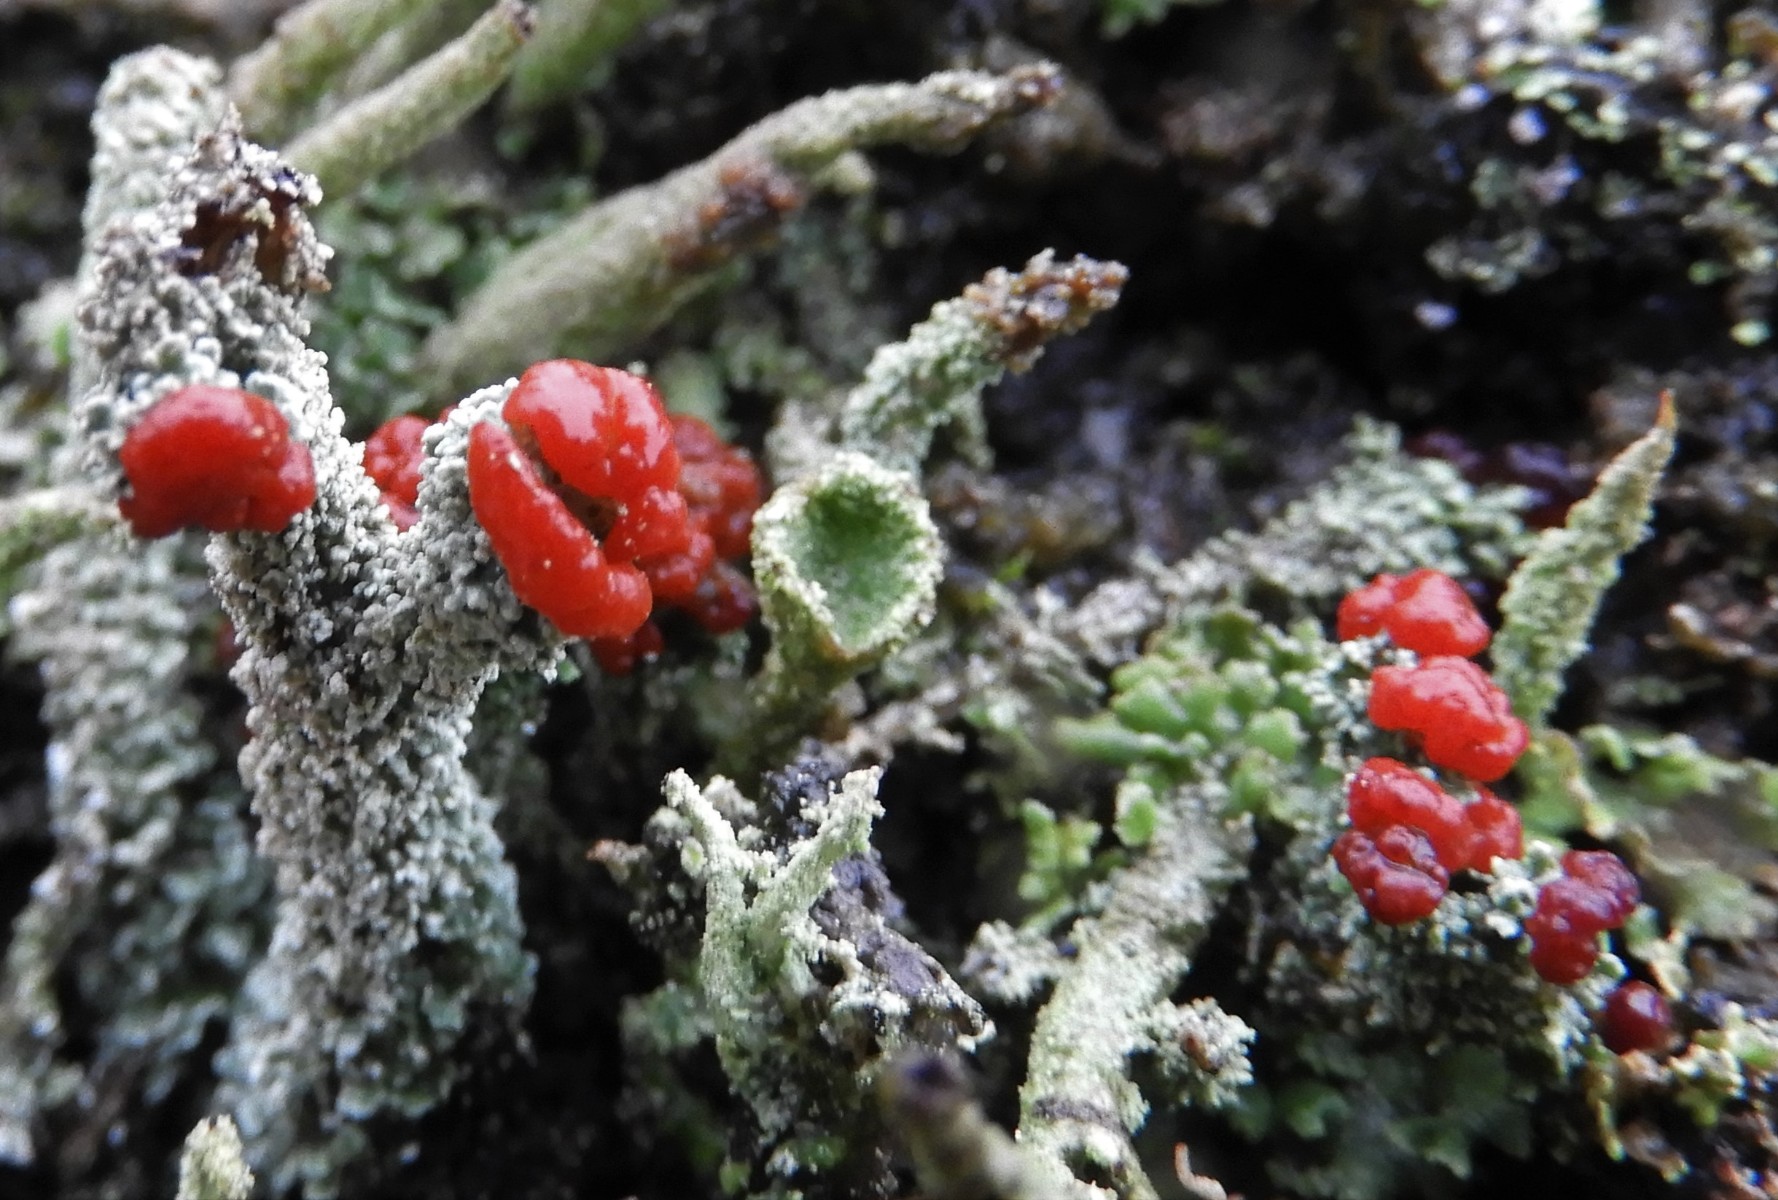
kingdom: Fungi
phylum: Ascomycota
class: Lecanoromycetes
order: Lecanorales
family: Cladoniaceae
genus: Cladonia
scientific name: Cladonia floerkeana
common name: lakrød bægerlav
